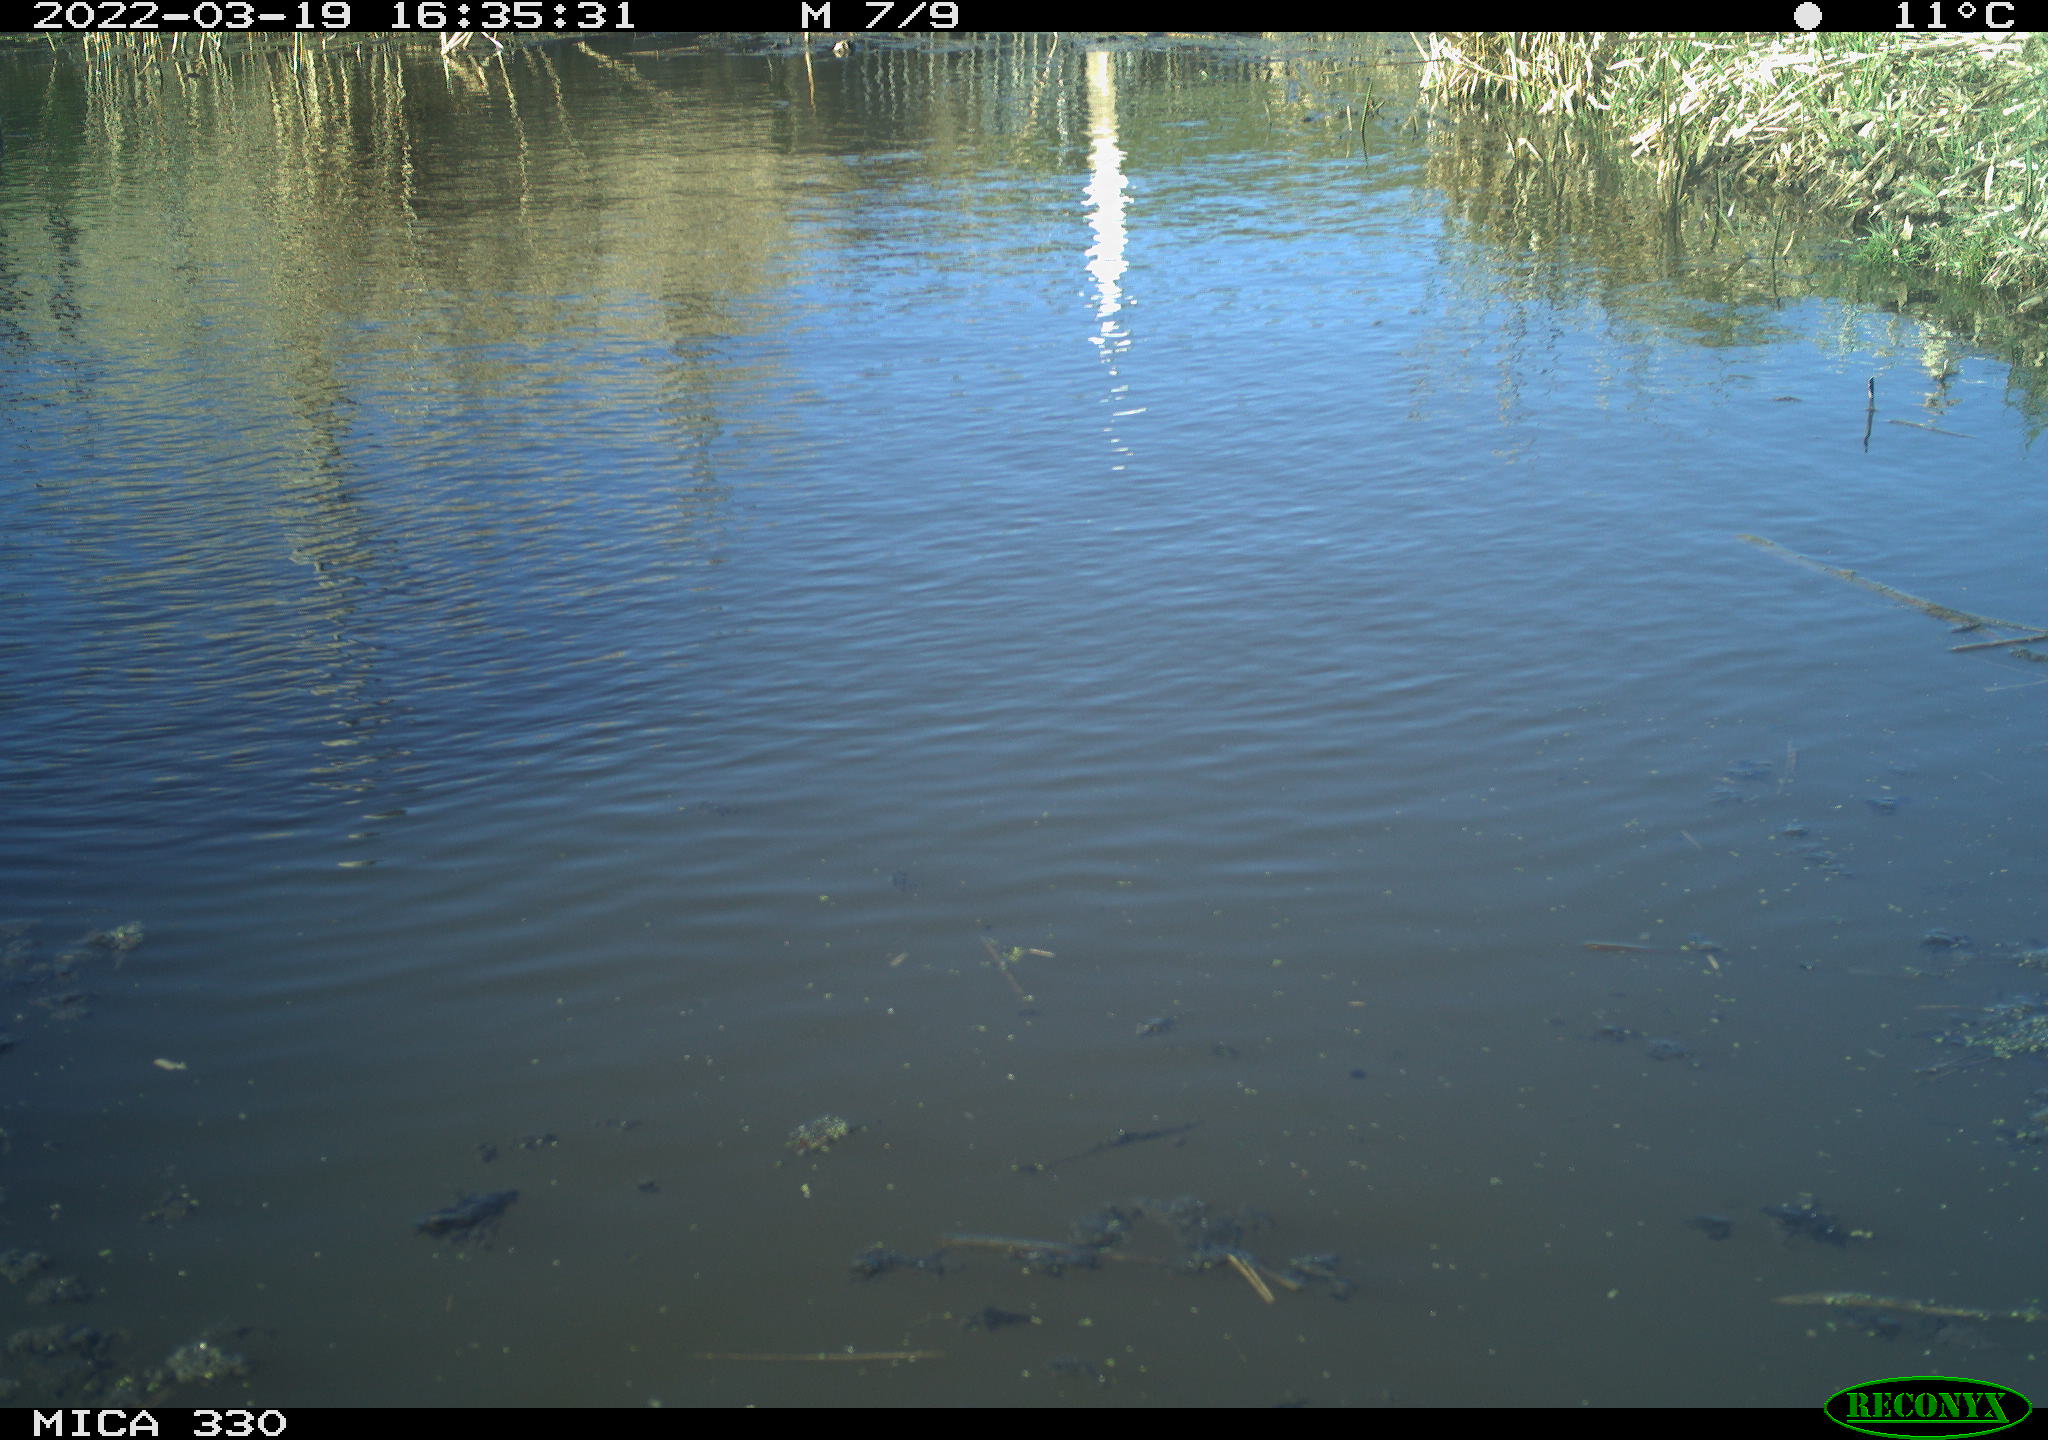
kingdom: Animalia
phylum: Chordata
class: Aves
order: Gruiformes
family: Rallidae
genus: Gallinula
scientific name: Gallinula chloropus
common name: Common moorhen
